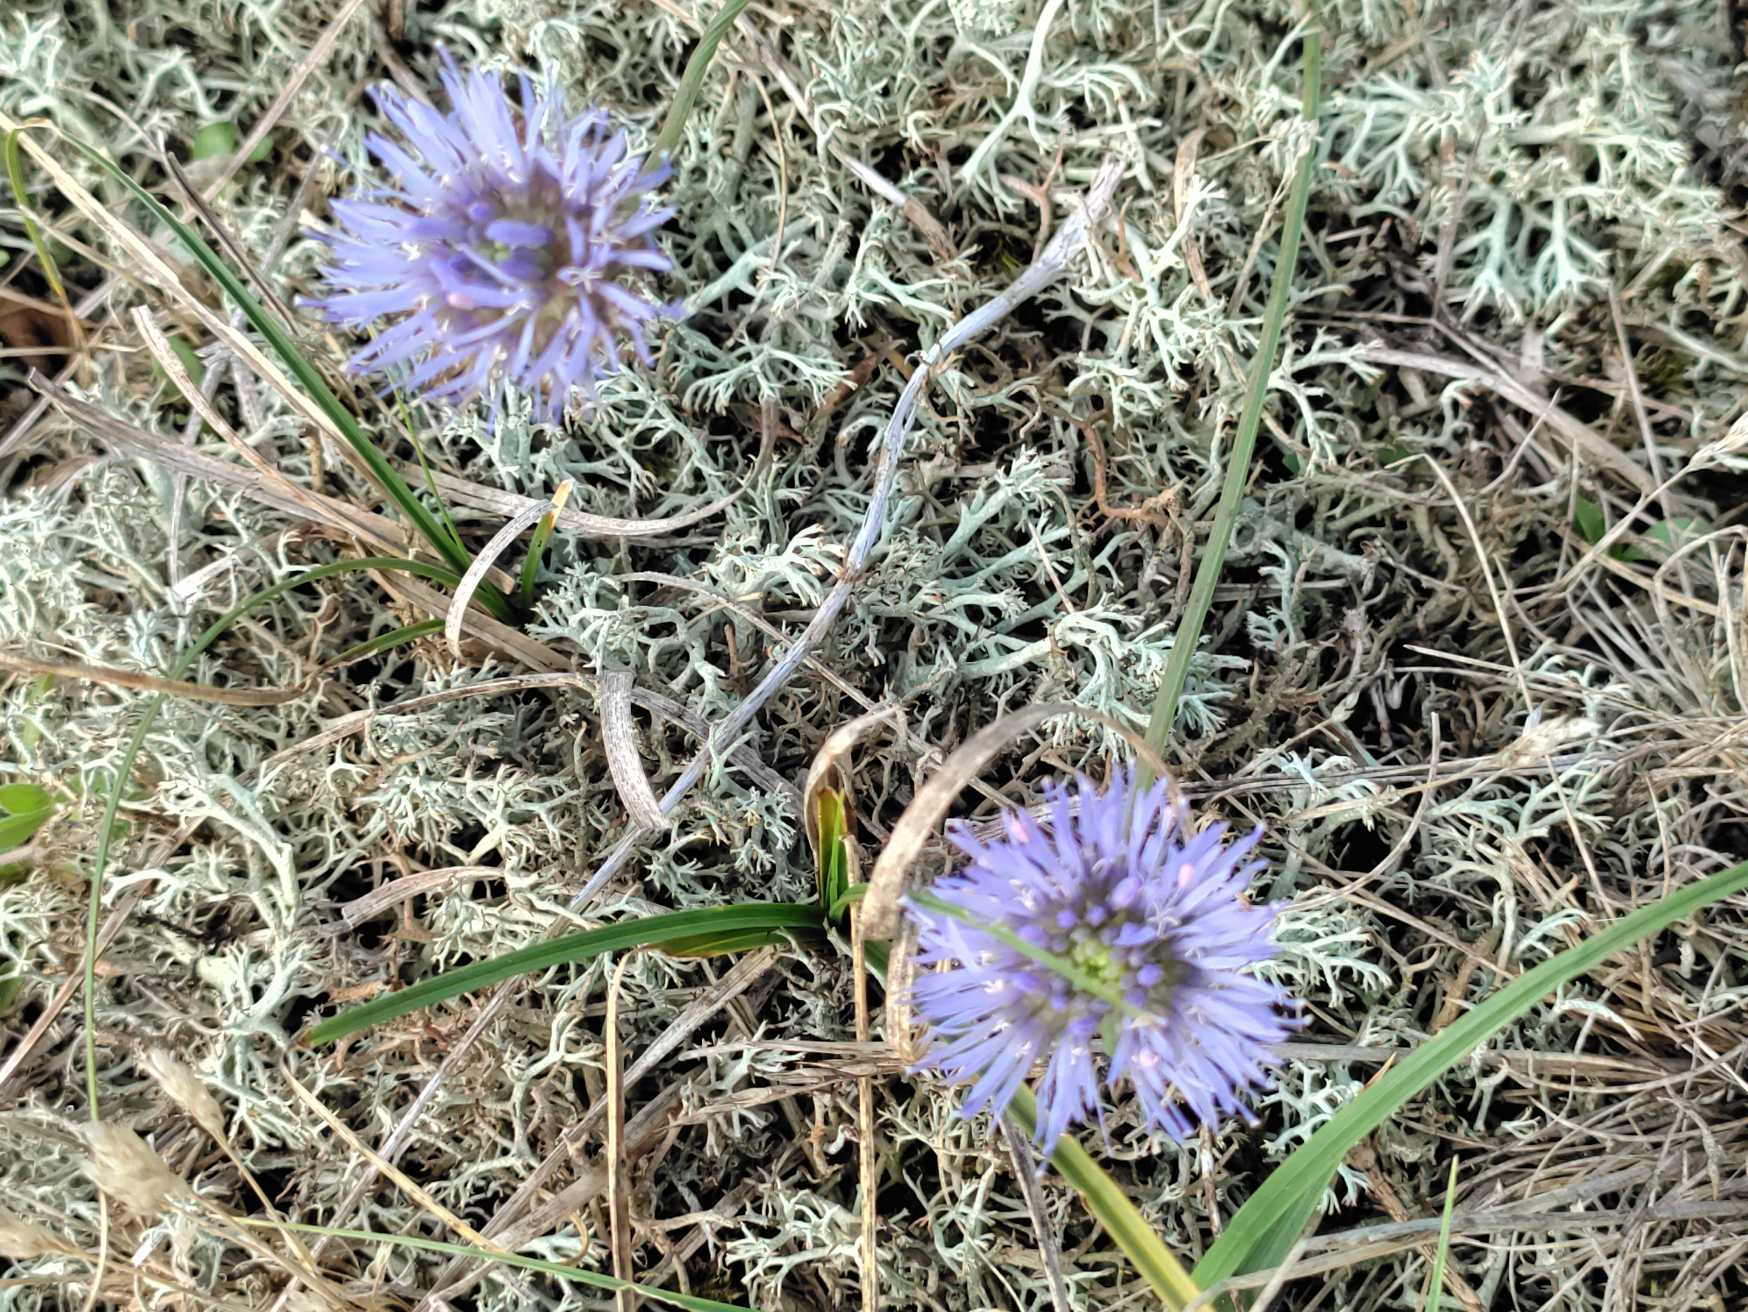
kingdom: Plantae
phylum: Tracheophyta
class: Magnoliopsida
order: Asterales
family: Campanulaceae
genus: Jasione
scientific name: Jasione montana
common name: Blåmunke
